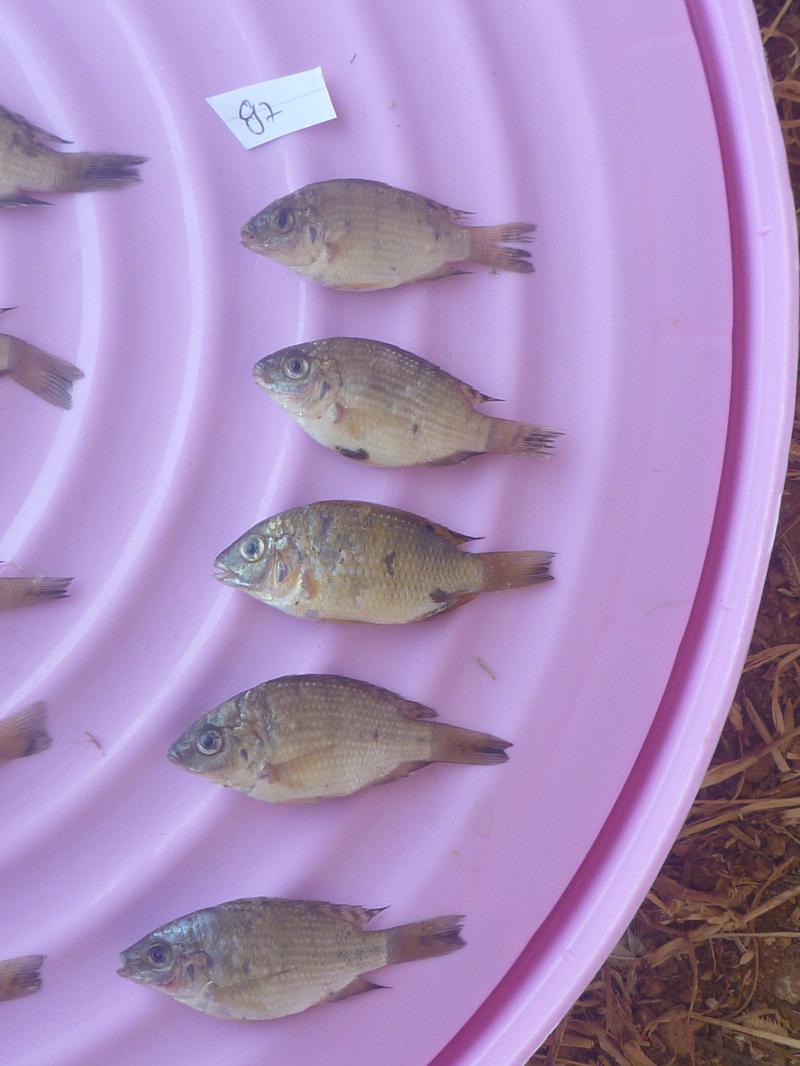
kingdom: Animalia
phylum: Chordata
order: Perciformes
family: Cichlidae
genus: Oreochromis
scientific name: Oreochromis shiranus
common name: Chilwa tilapia
